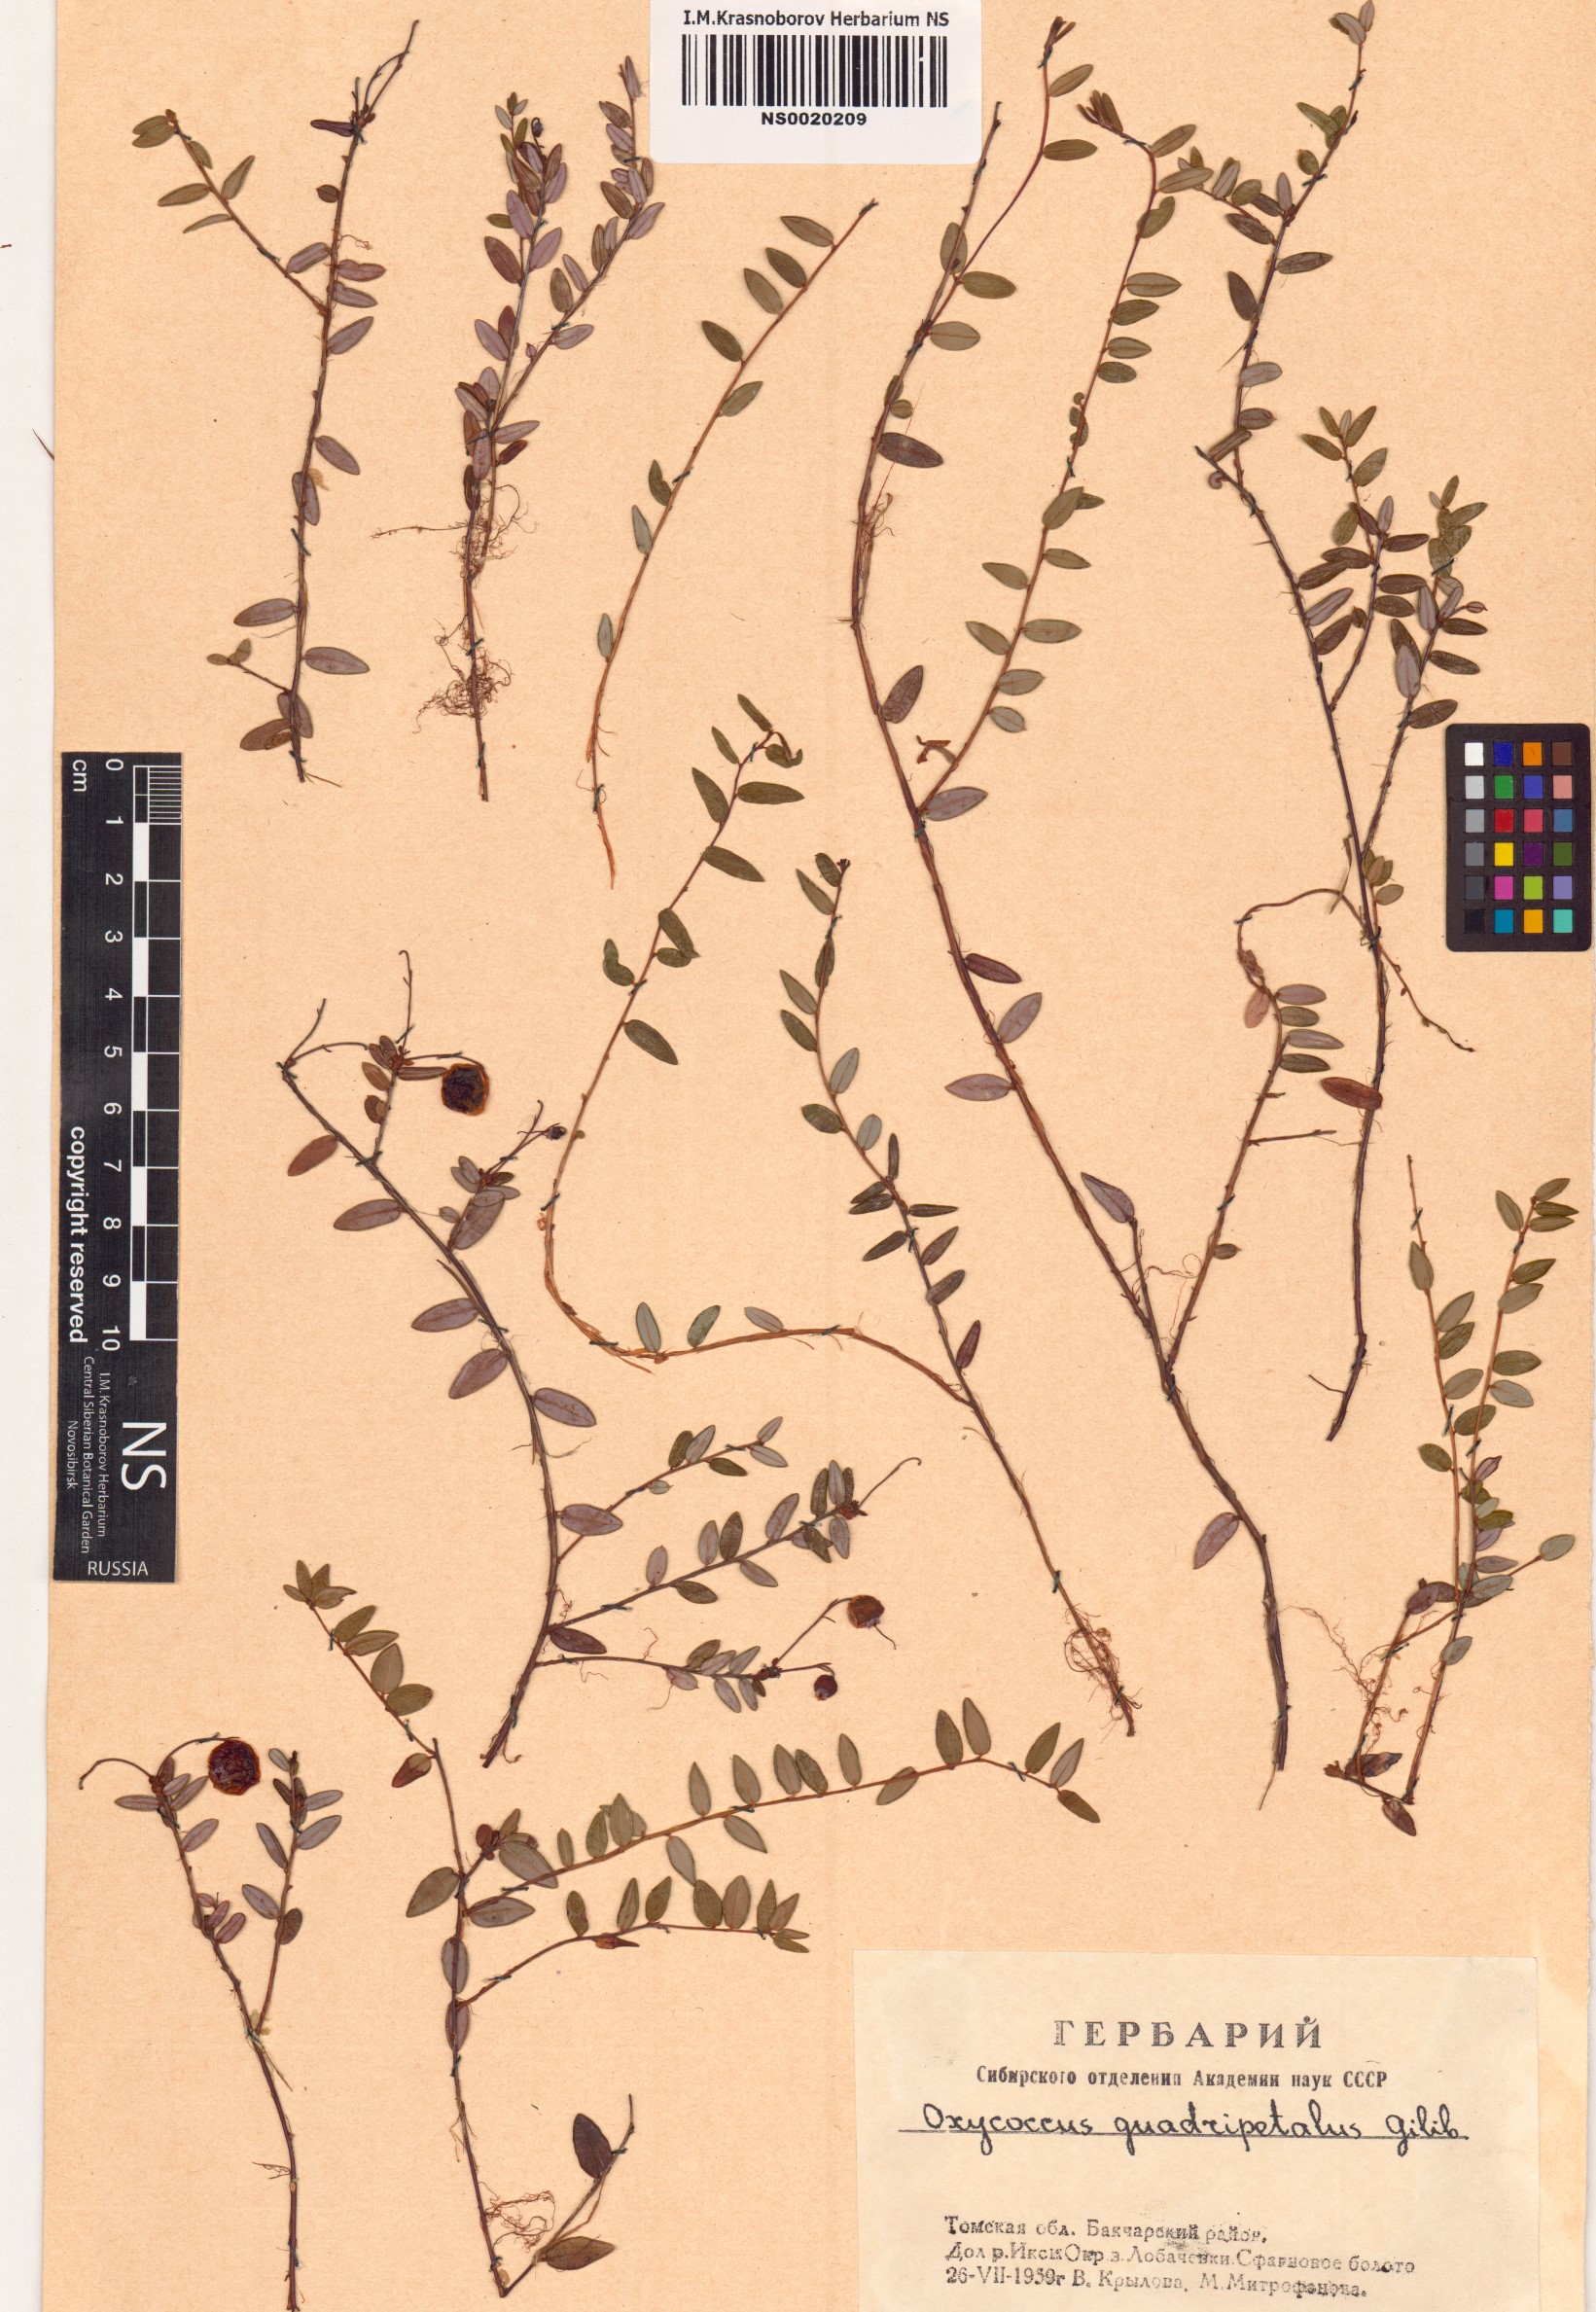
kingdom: Plantae
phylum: Tracheophyta
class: Magnoliopsida
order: Ericales
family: Ericaceae
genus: Vaccinium
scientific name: Vaccinium oxycoccos
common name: Cranberry
